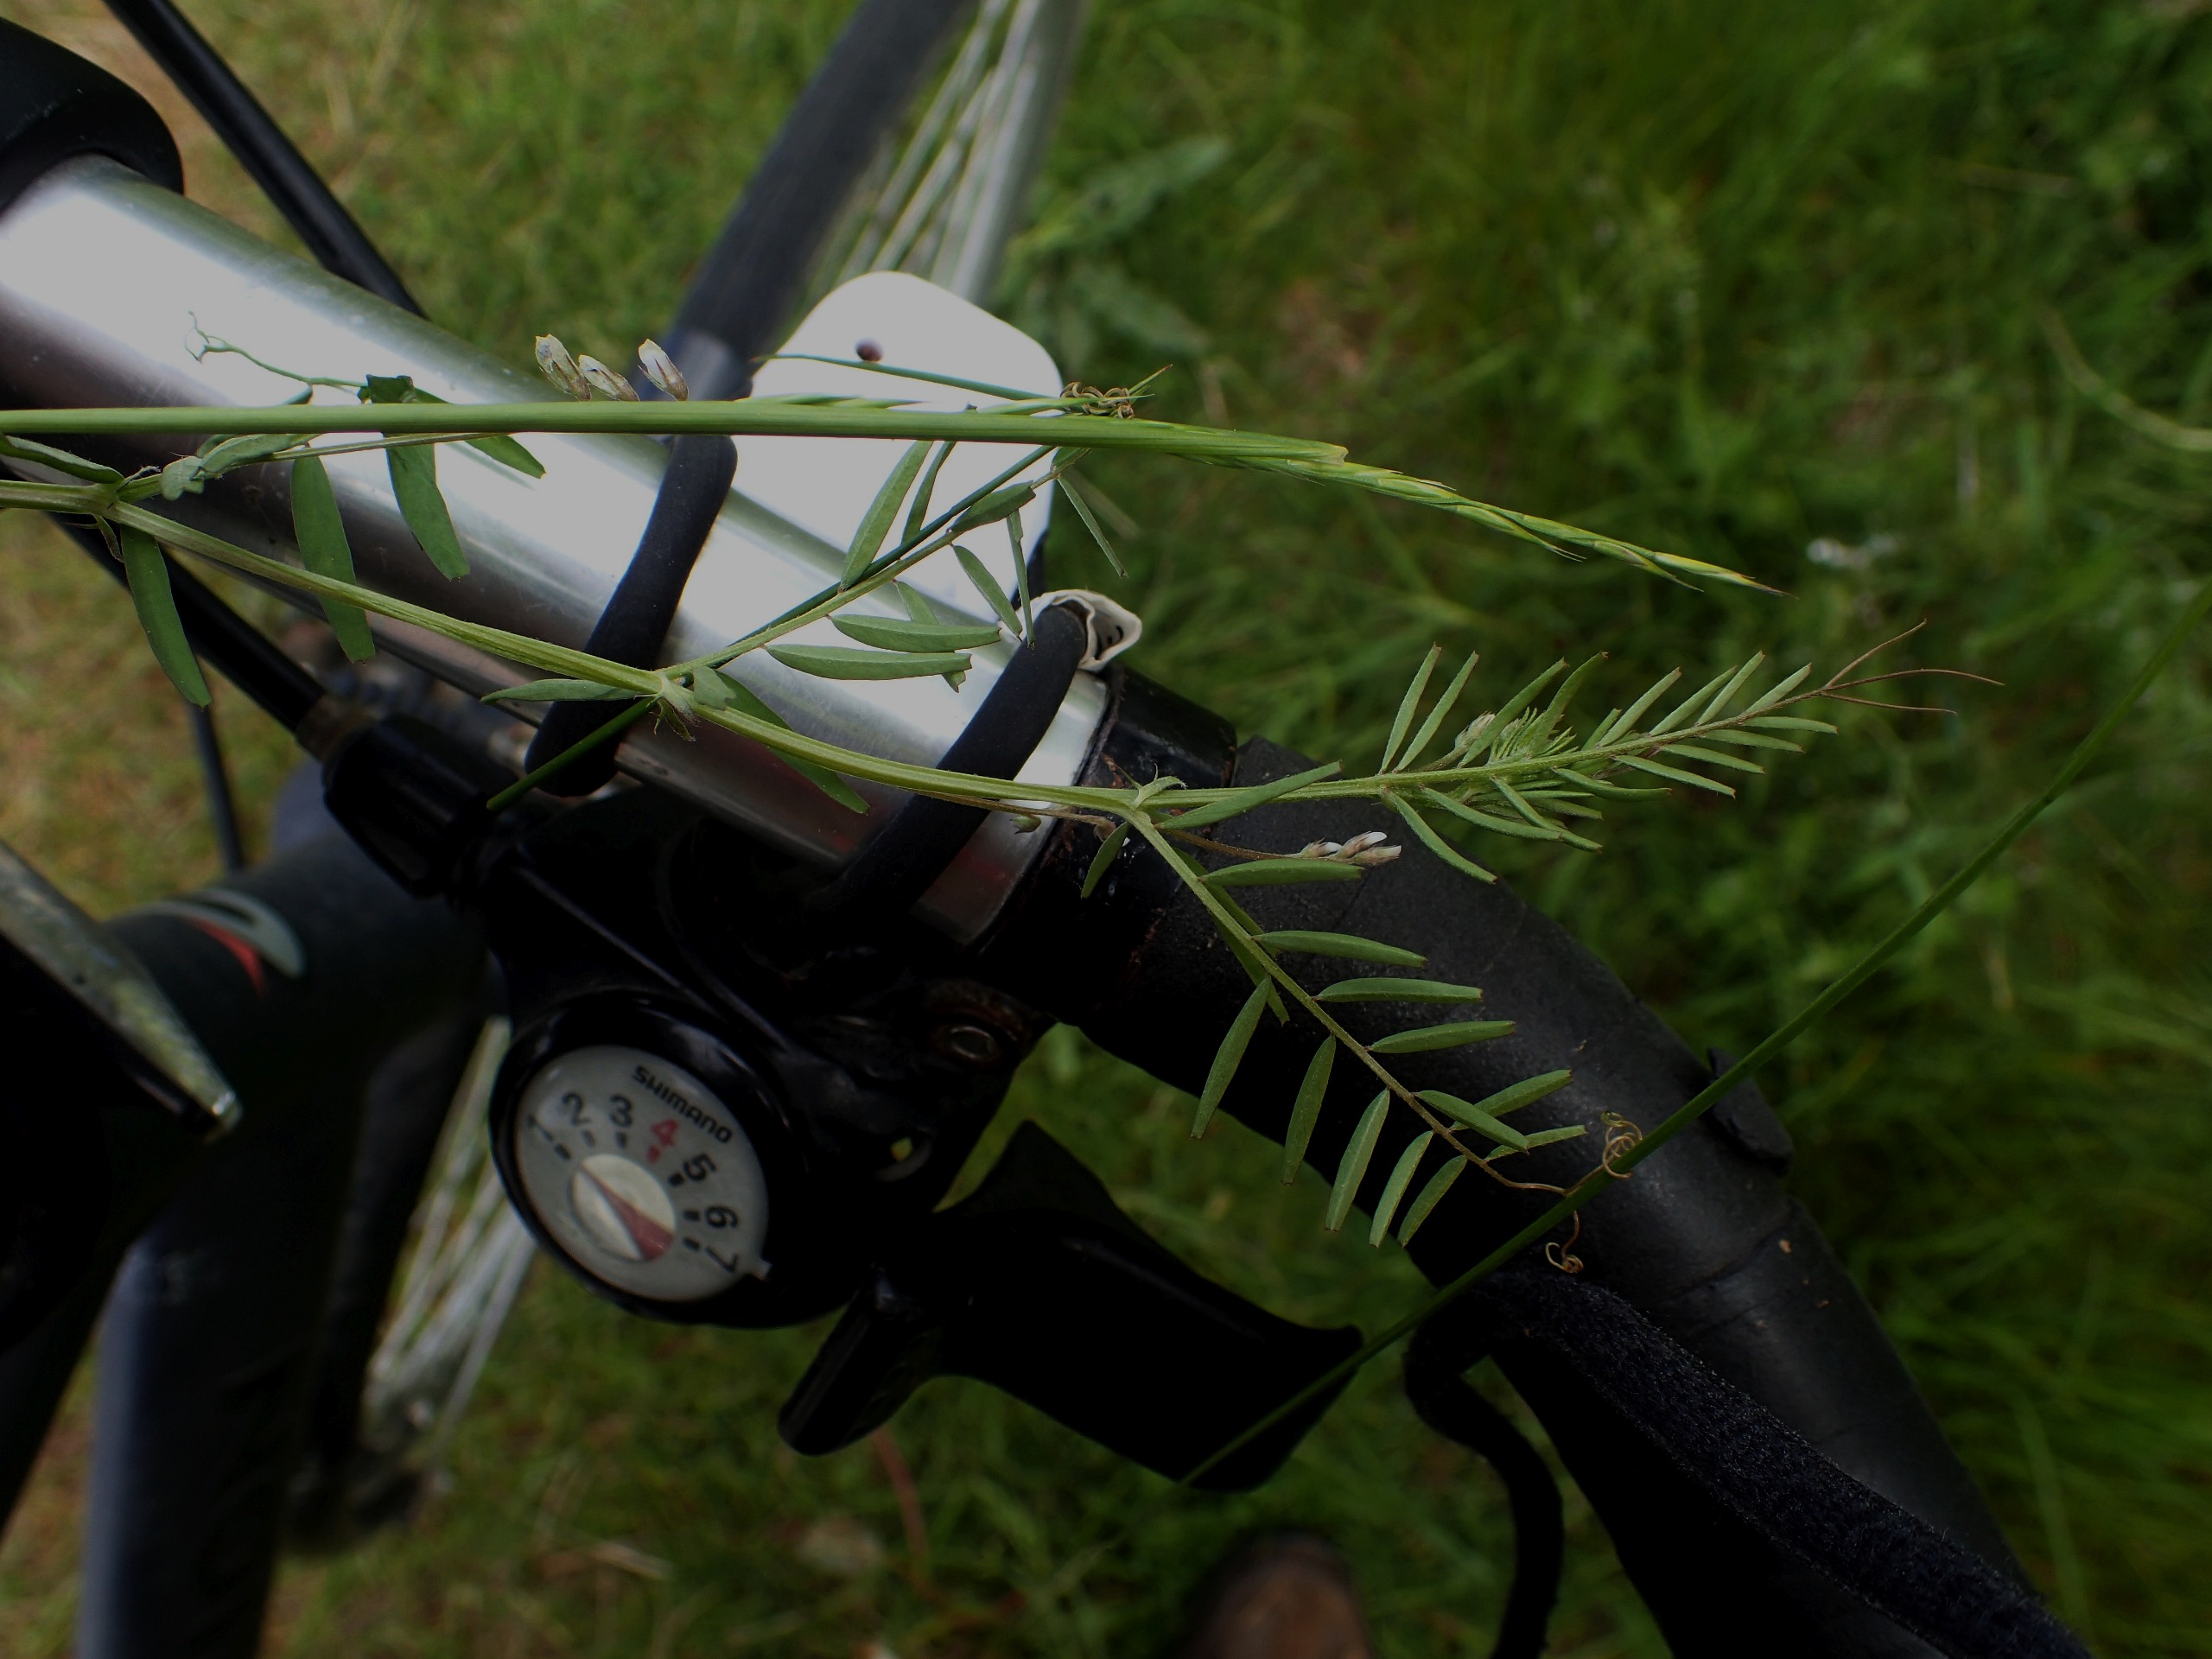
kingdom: Plantae
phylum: Tracheophyta
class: Magnoliopsida
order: Fabales
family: Fabaceae
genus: Vicia
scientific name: Vicia hirsuta
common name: Tofrøet vikke
